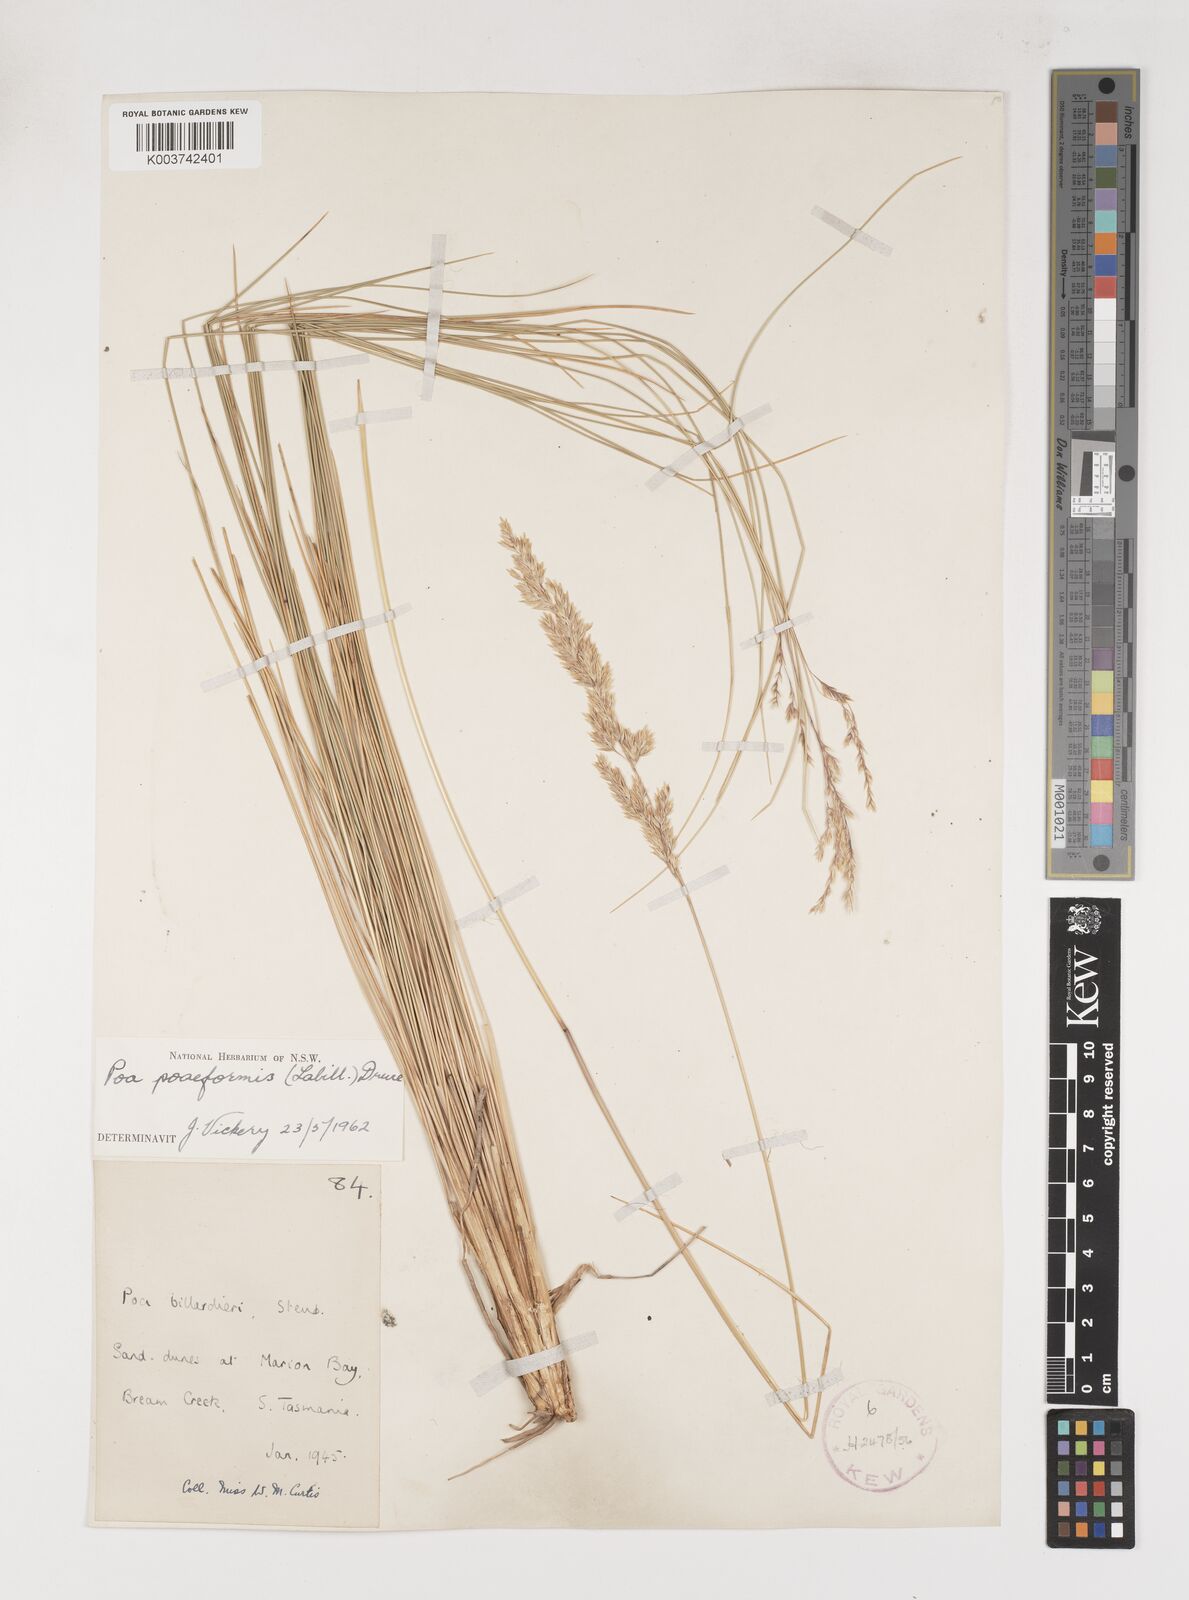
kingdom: Plantae
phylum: Tracheophyta
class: Liliopsida
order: Poales
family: Poaceae
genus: Poa
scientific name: Poa poiformis
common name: Tussock poa
